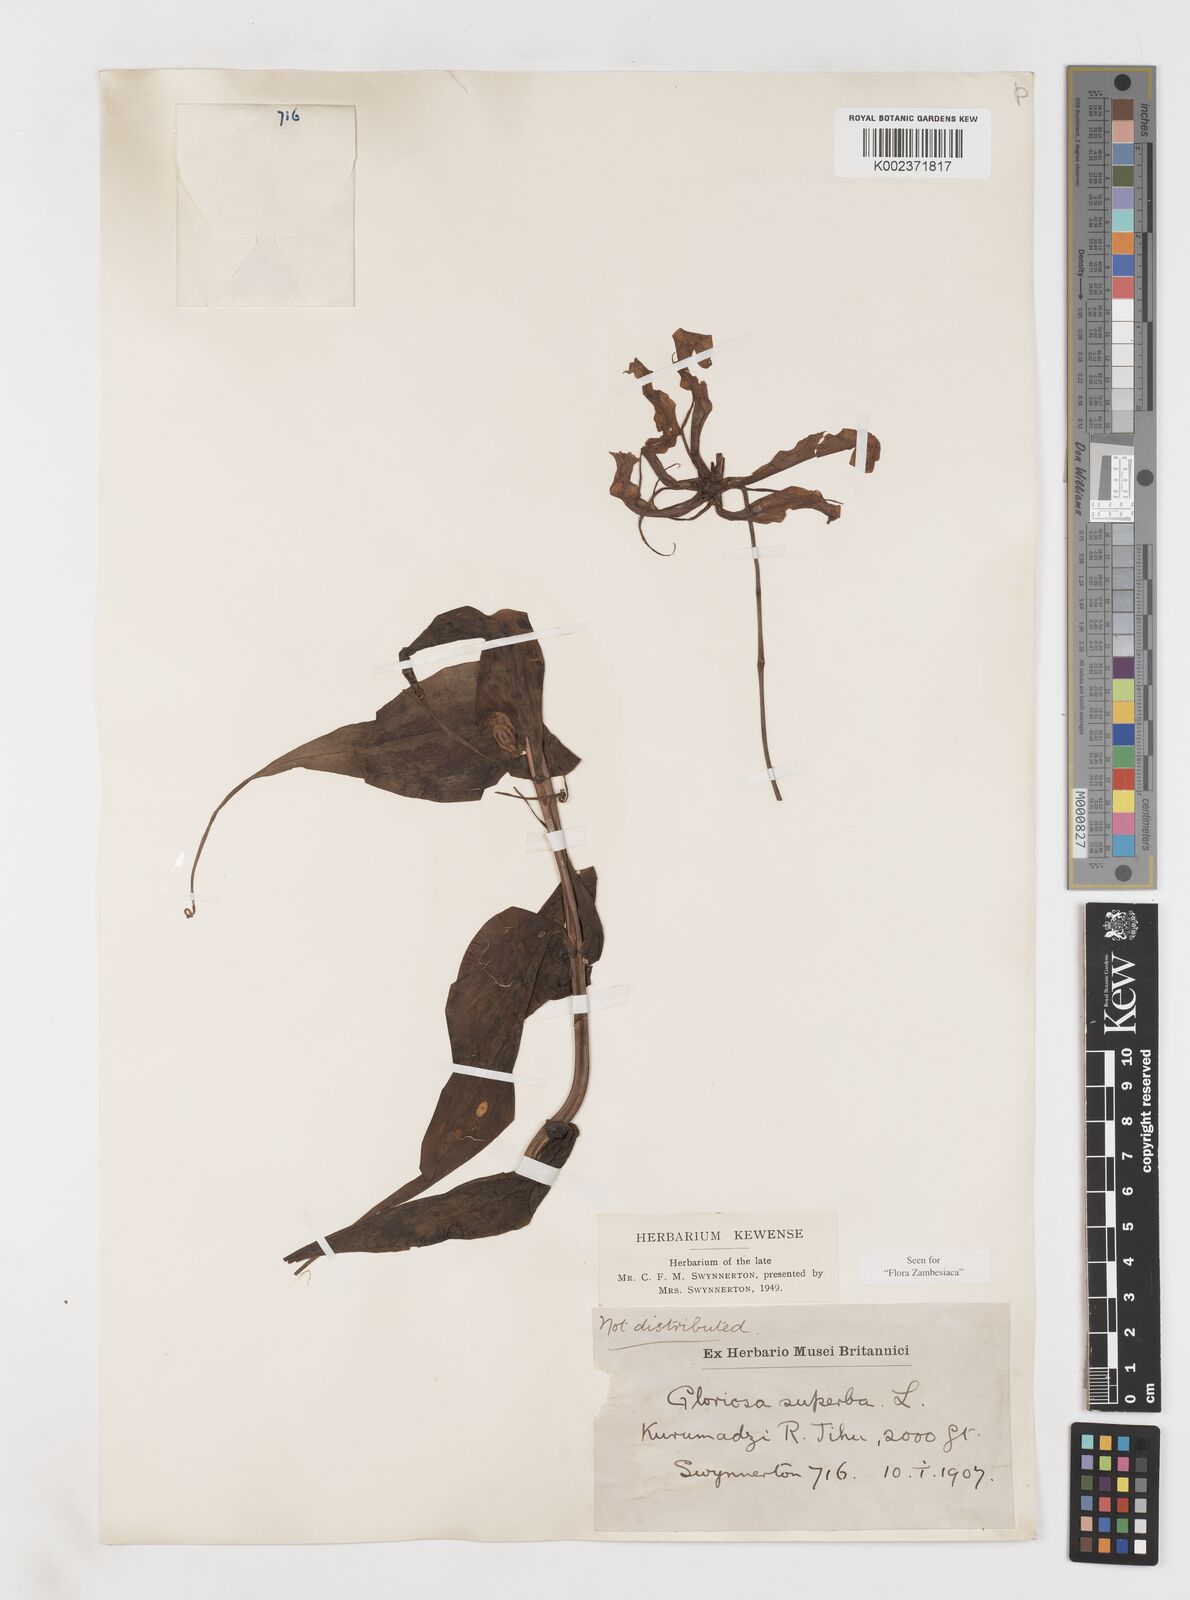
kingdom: Plantae
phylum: Tracheophyta
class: Liliopsida
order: Liliales
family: Colchicaceae
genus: Gloriosa
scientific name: Gloriosa simplex
